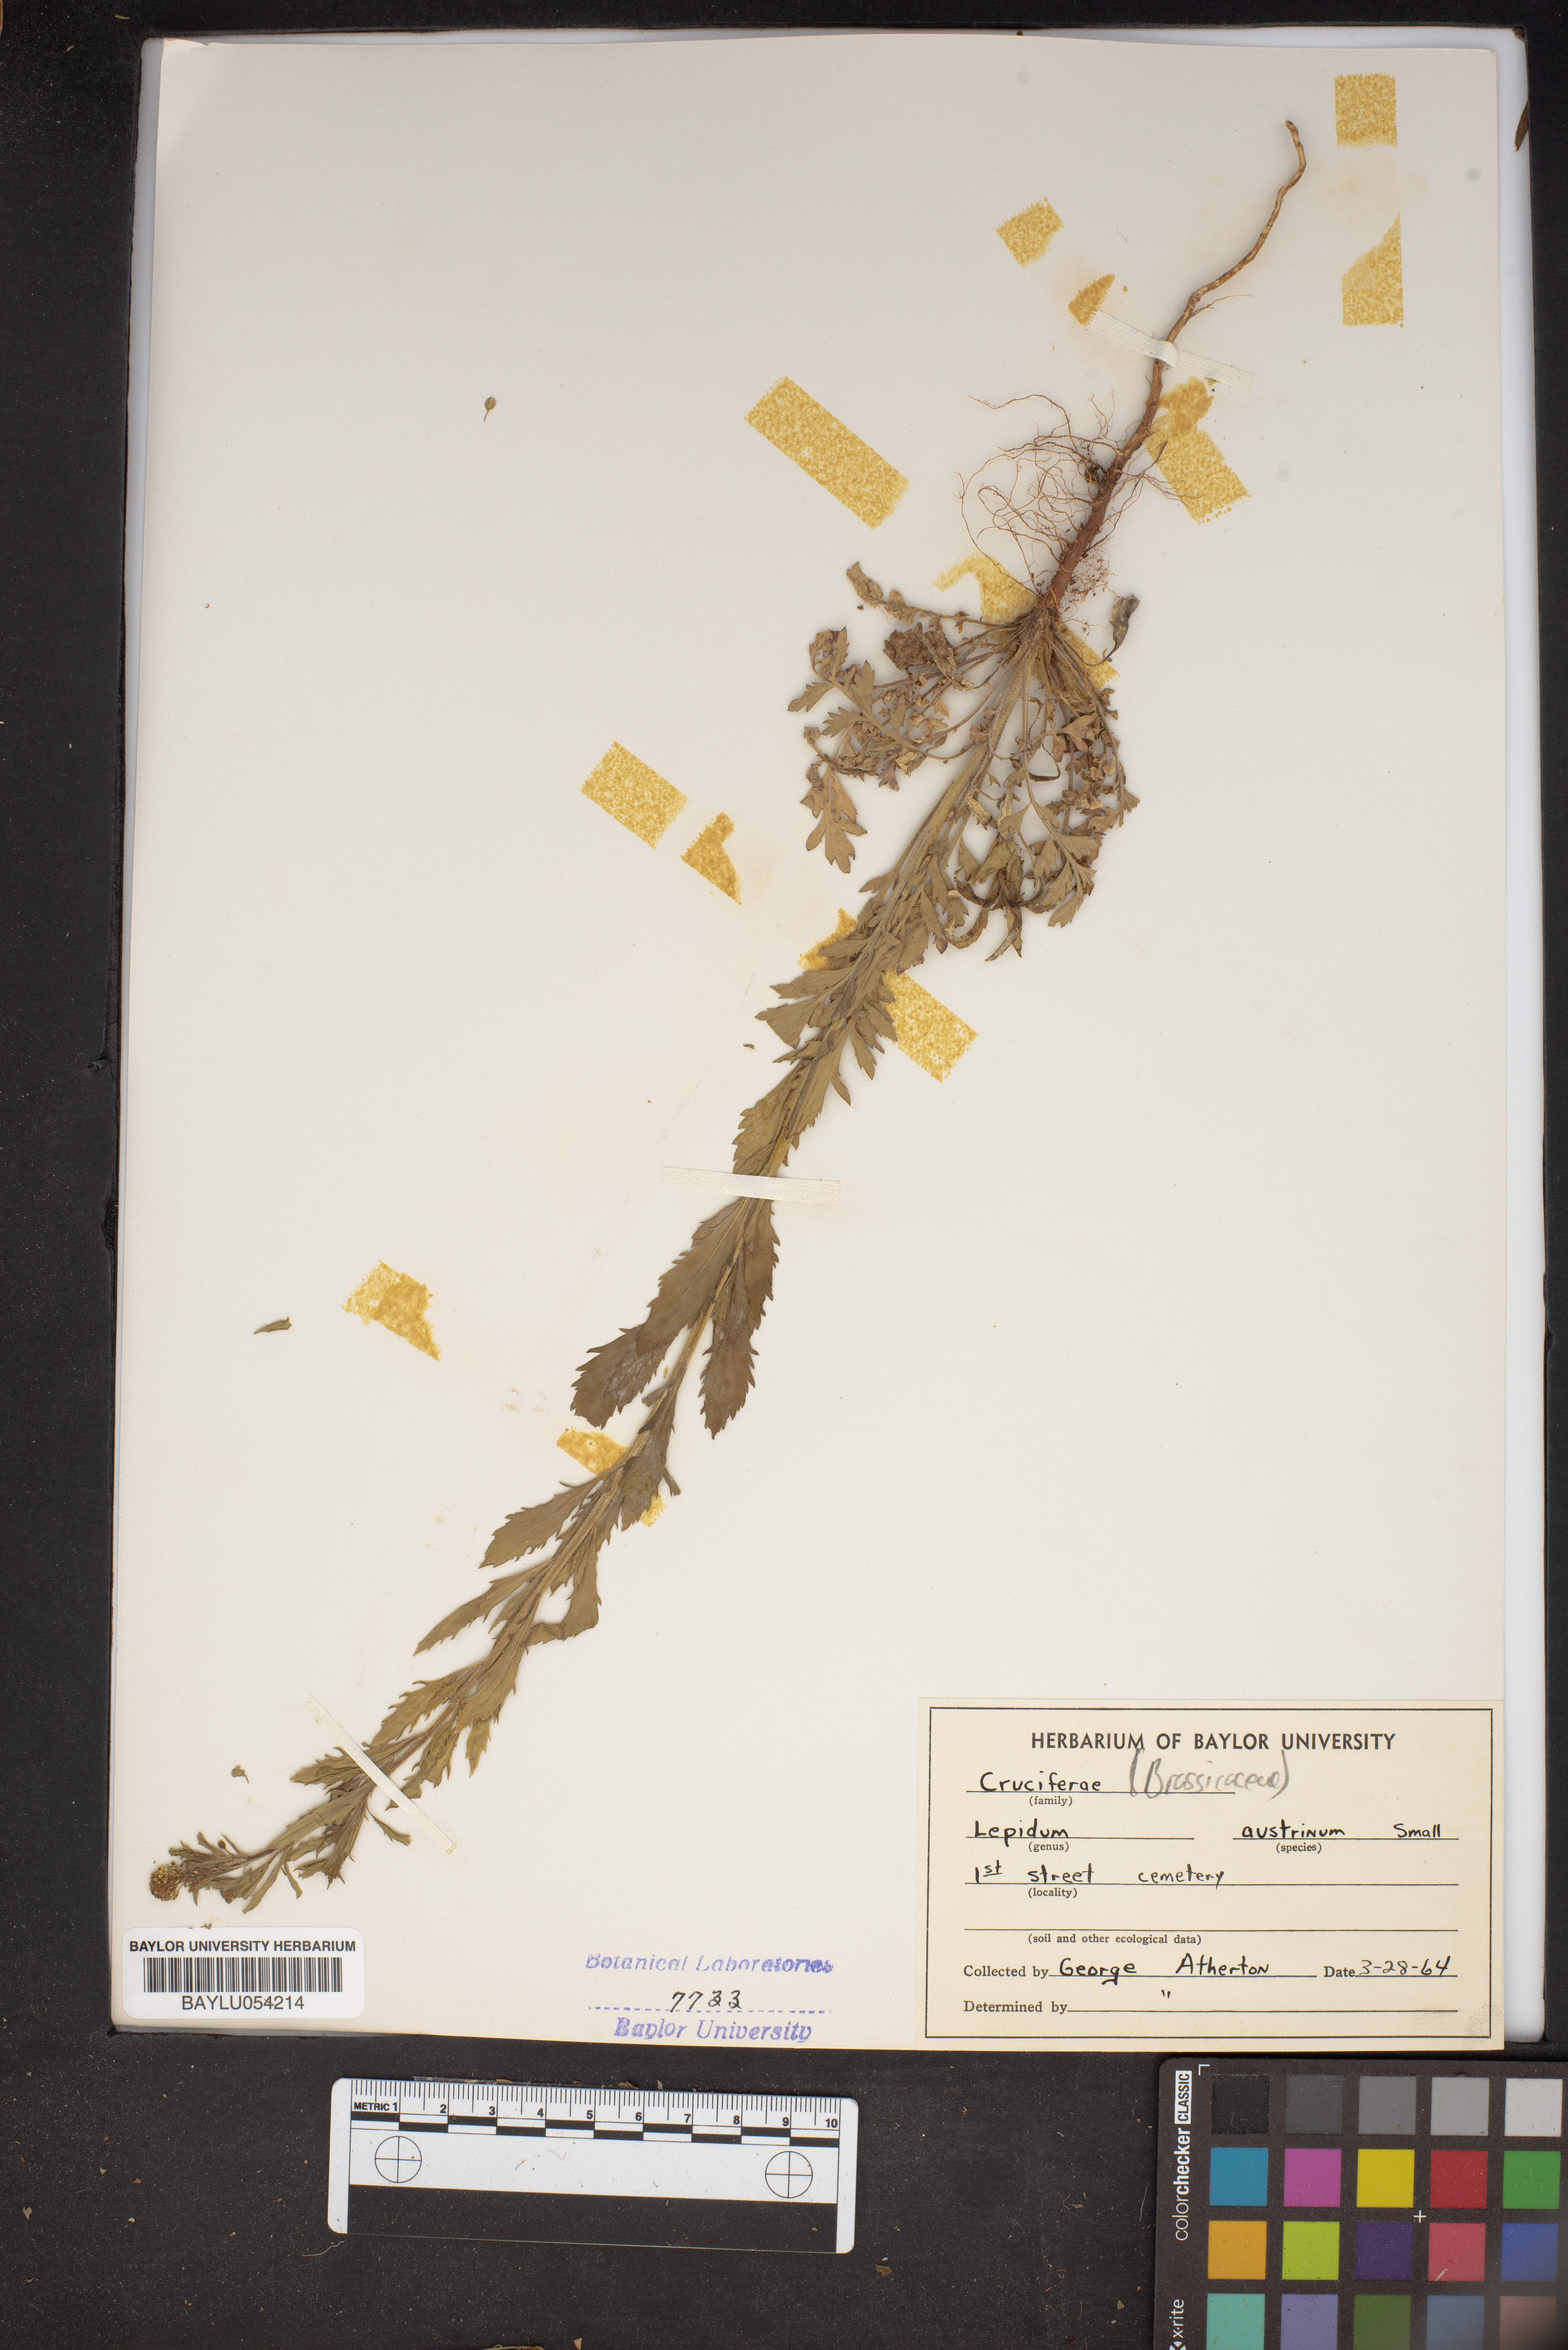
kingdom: Plantae
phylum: Tracheophyta
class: Magnoliopsida
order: Brassicales
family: Brassicaceae
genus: Lepidium
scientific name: Lepidium austrinum
